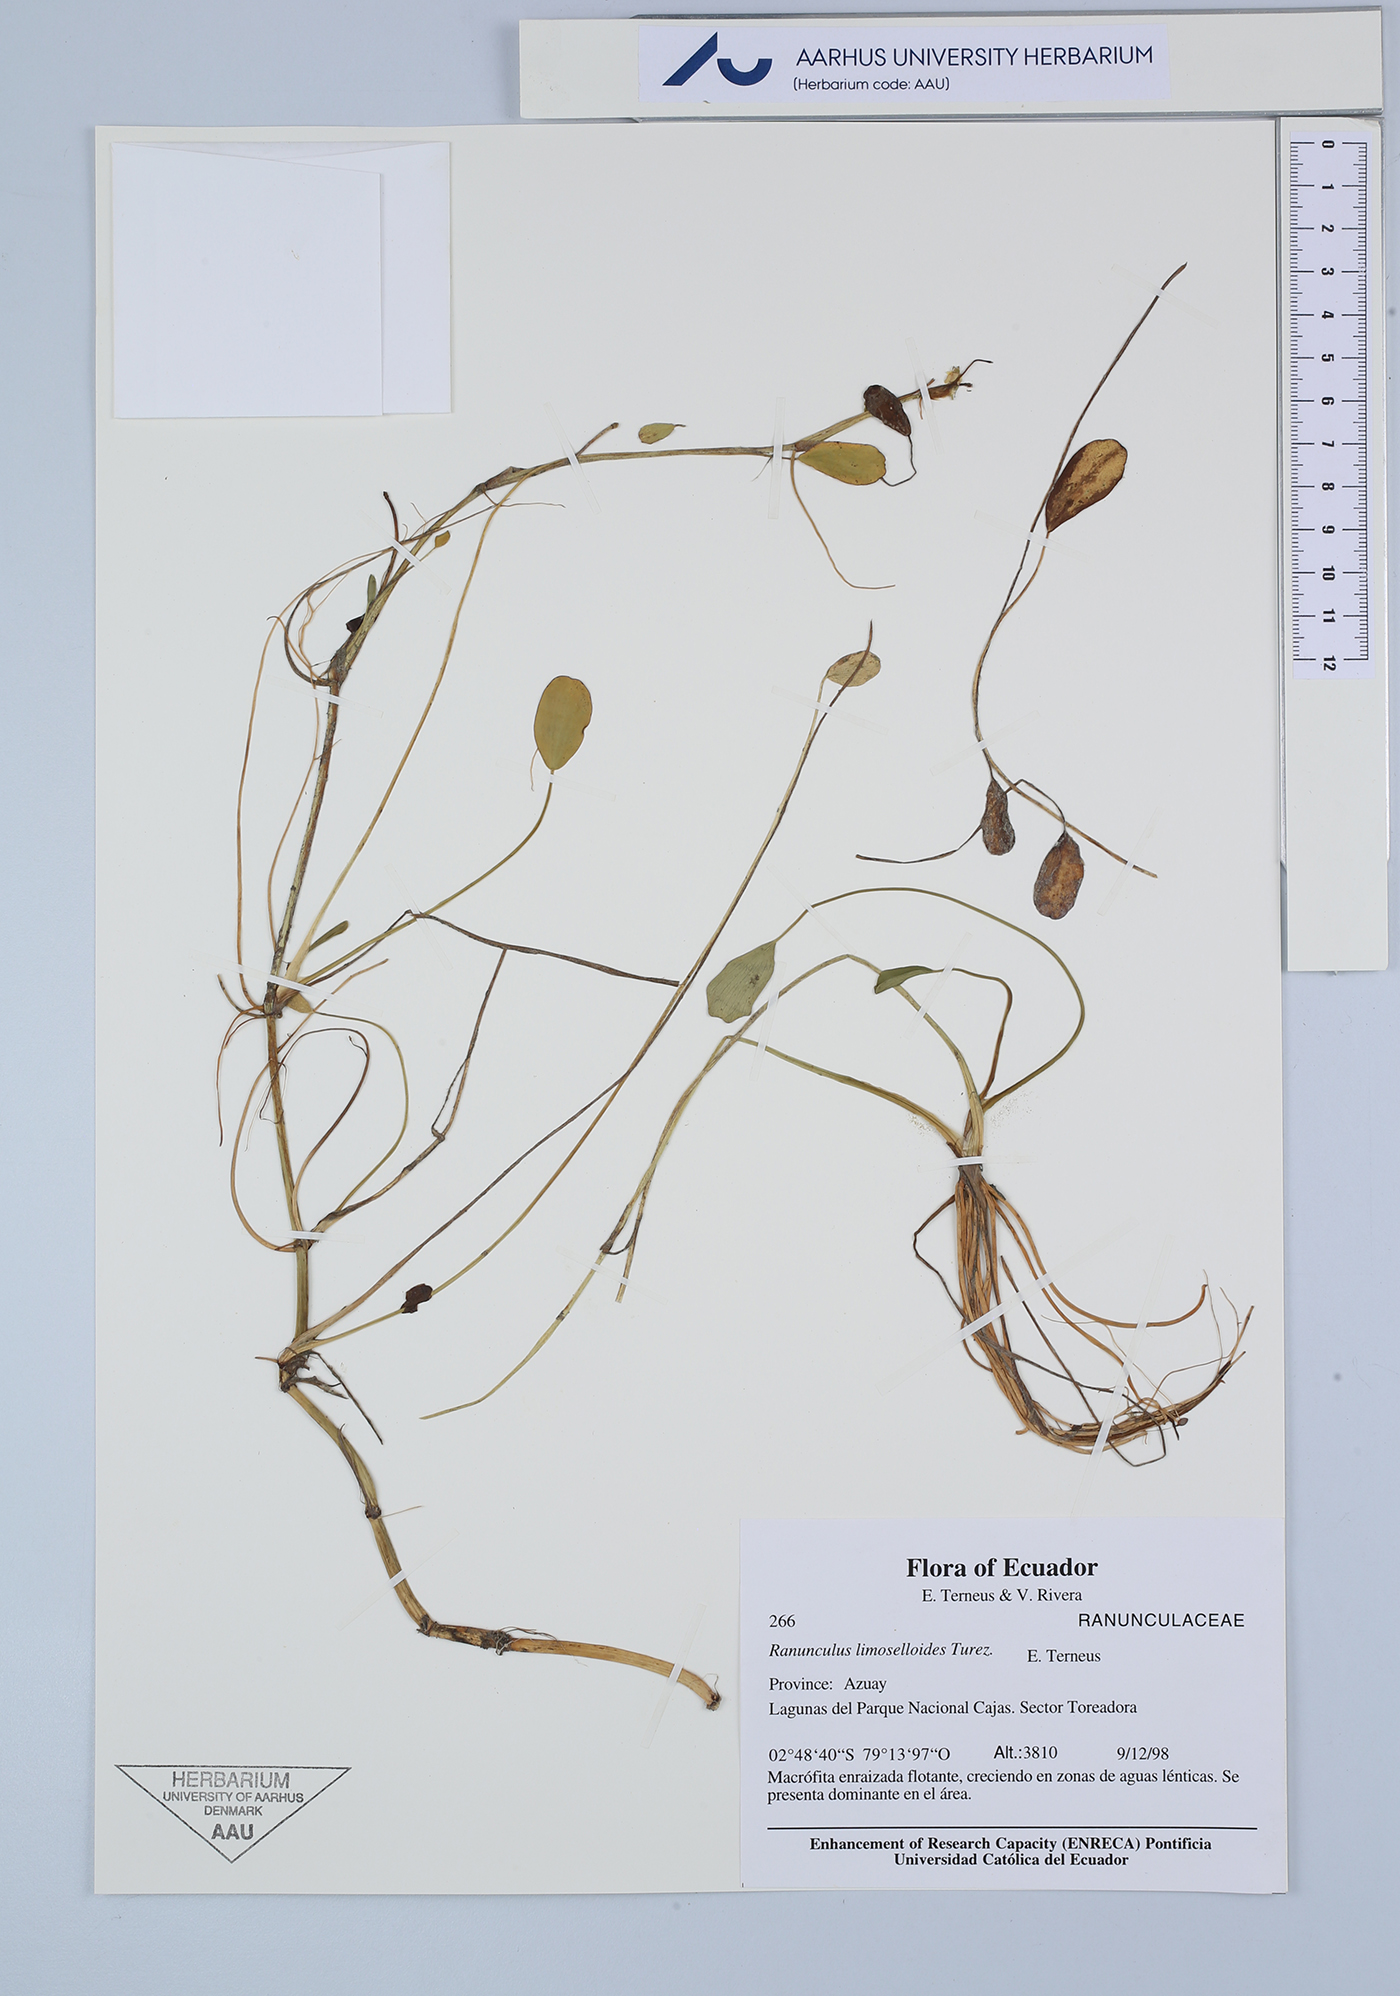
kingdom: Plantae
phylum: Tracheophyta
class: Magnoliopsida
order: Ranunculales
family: Ranunculaceae
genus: Ranunculus
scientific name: Ranunculus limoselloides
